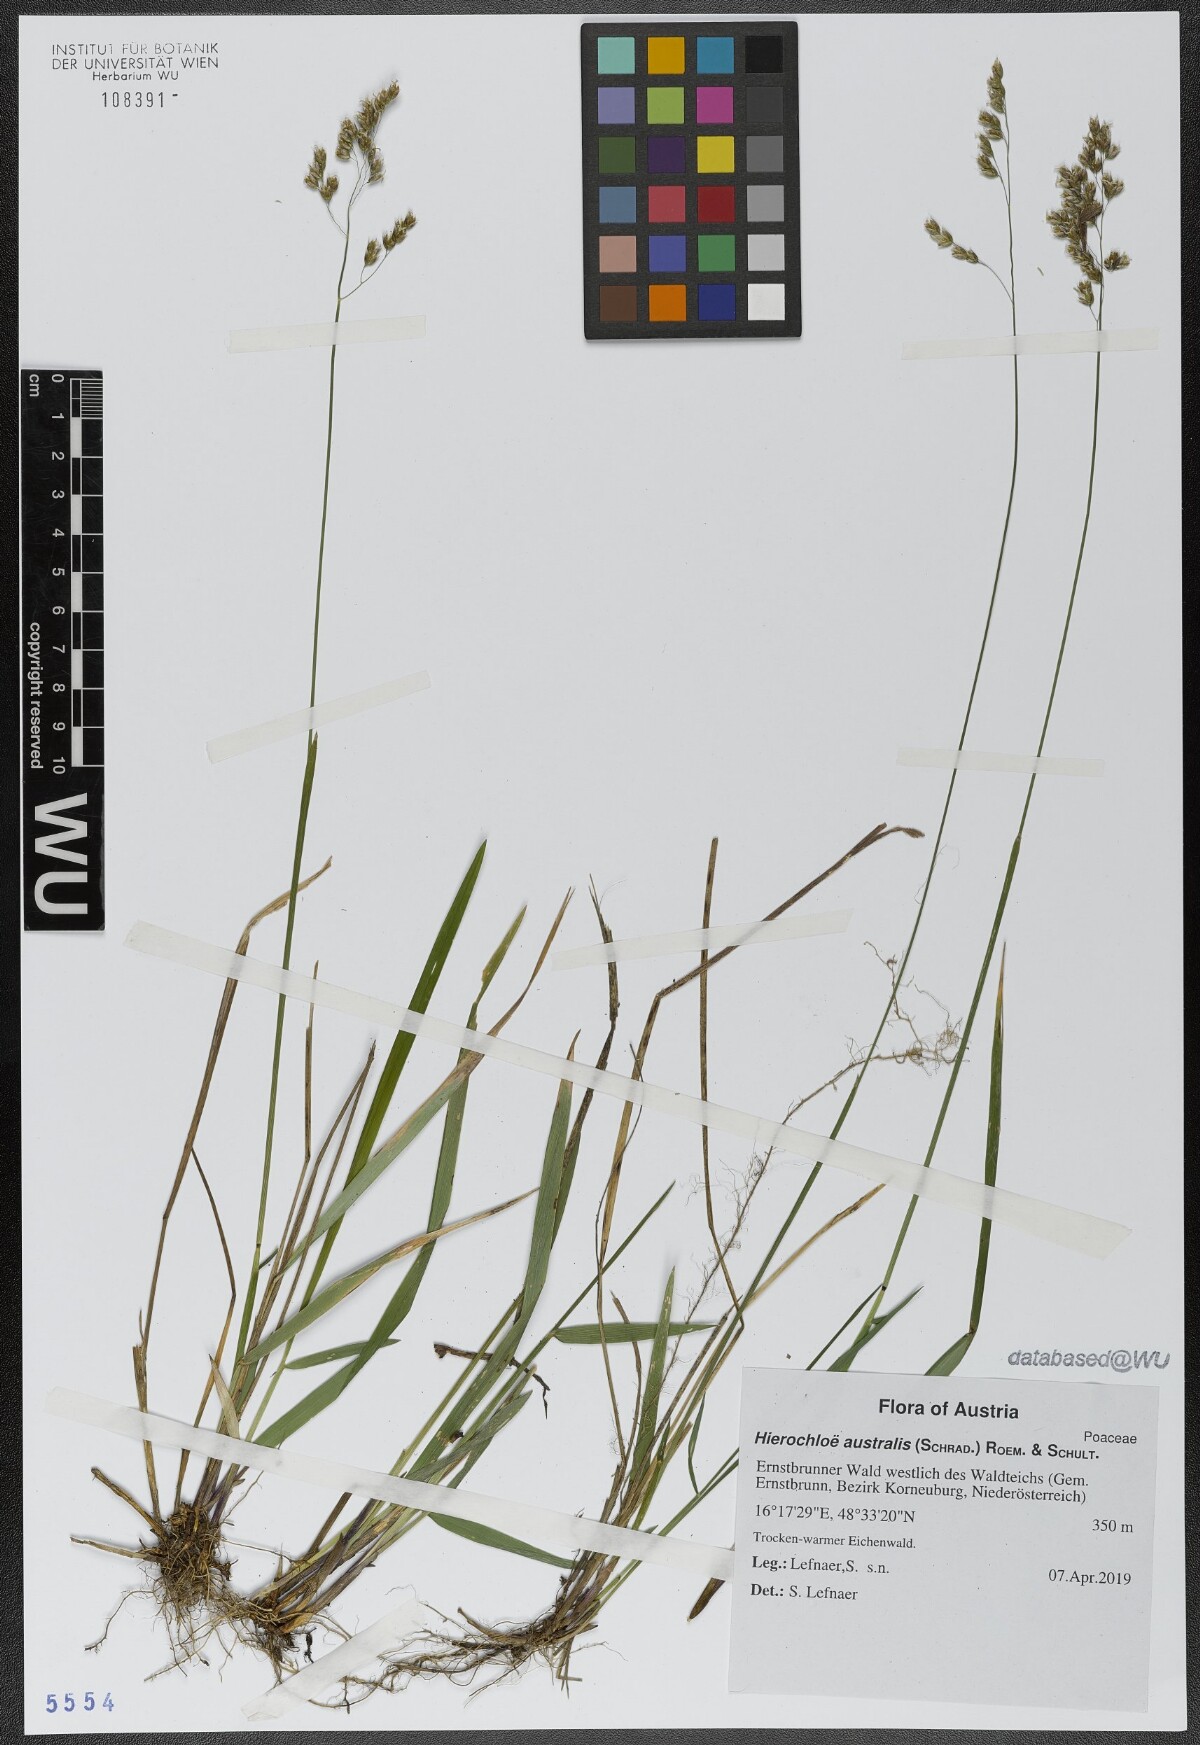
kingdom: Plantae
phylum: Tracheophyta
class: Liliopsida
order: Poales
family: Poaceae
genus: Anthoxanthum
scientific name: Anthoxanthum australe
